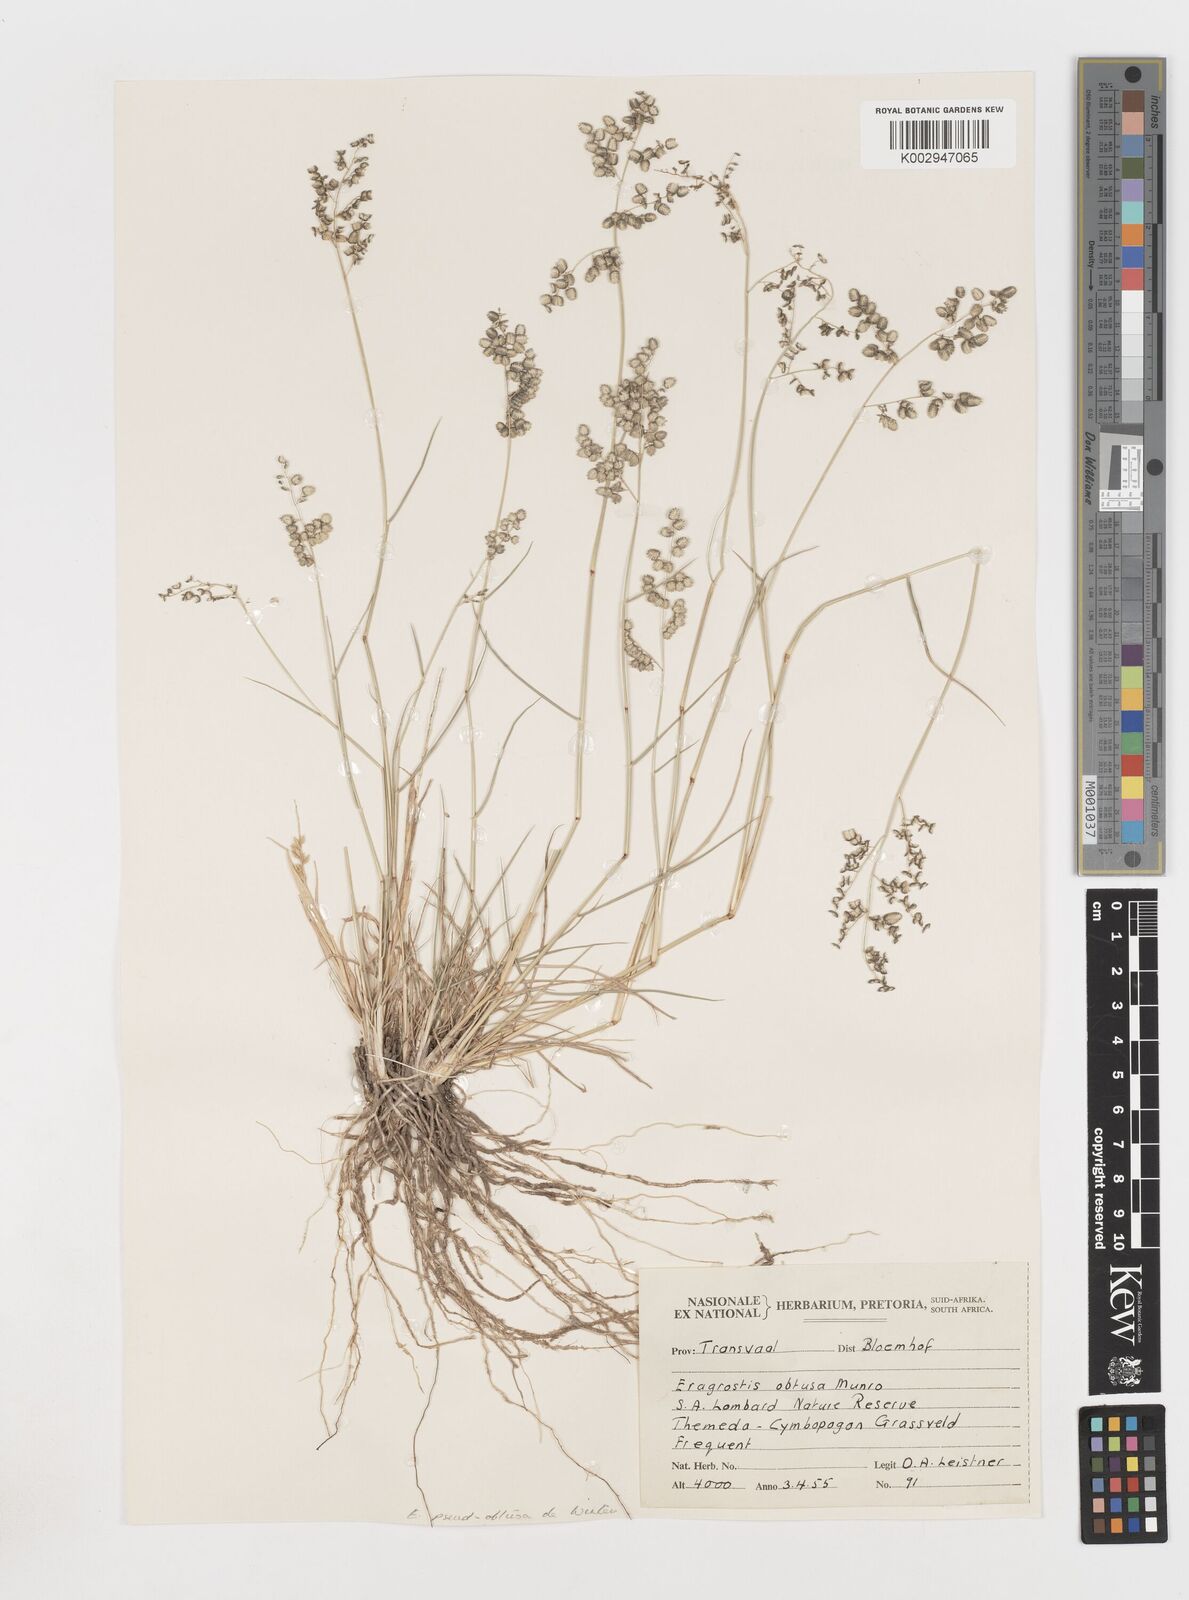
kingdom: Plantae
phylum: Tracheophyta
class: Liliopsida
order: Poales
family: Poaceae
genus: Eragrostis
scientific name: Eragrostis pseudobtusa
